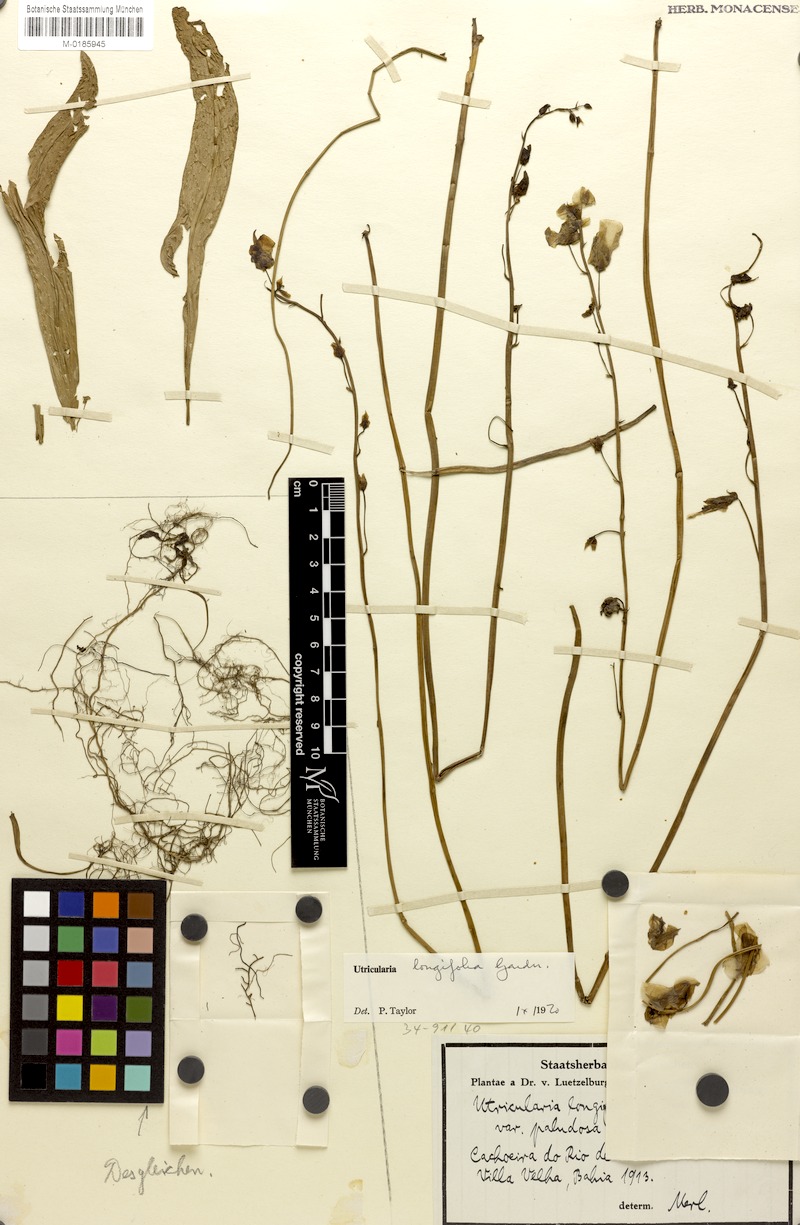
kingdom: Plantae
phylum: Tracheophyta
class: Magnoliopsida
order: Lamiales
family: Lentibulariaceae
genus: Utricularia
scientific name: Utricularia longifolia
